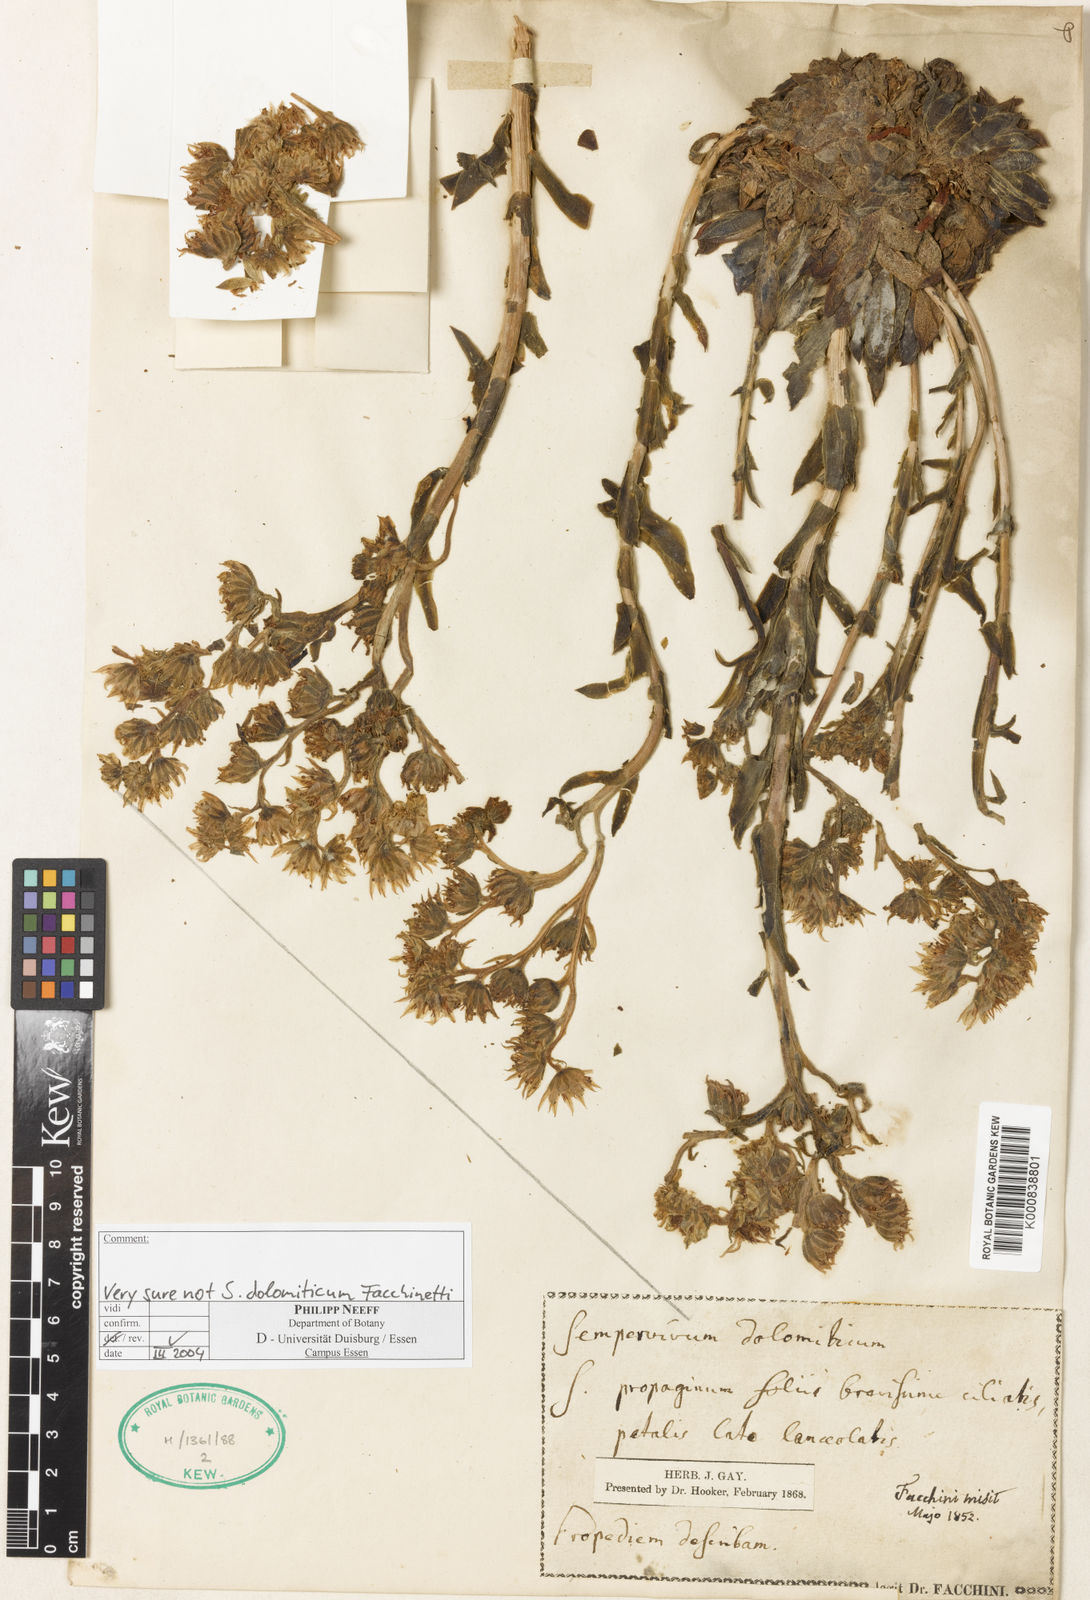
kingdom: Plantae
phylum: Tracheophyta
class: Magnoliopsida
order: Saxifragales
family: Crassulaceae
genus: Sempervivum
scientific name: Sempervivum
